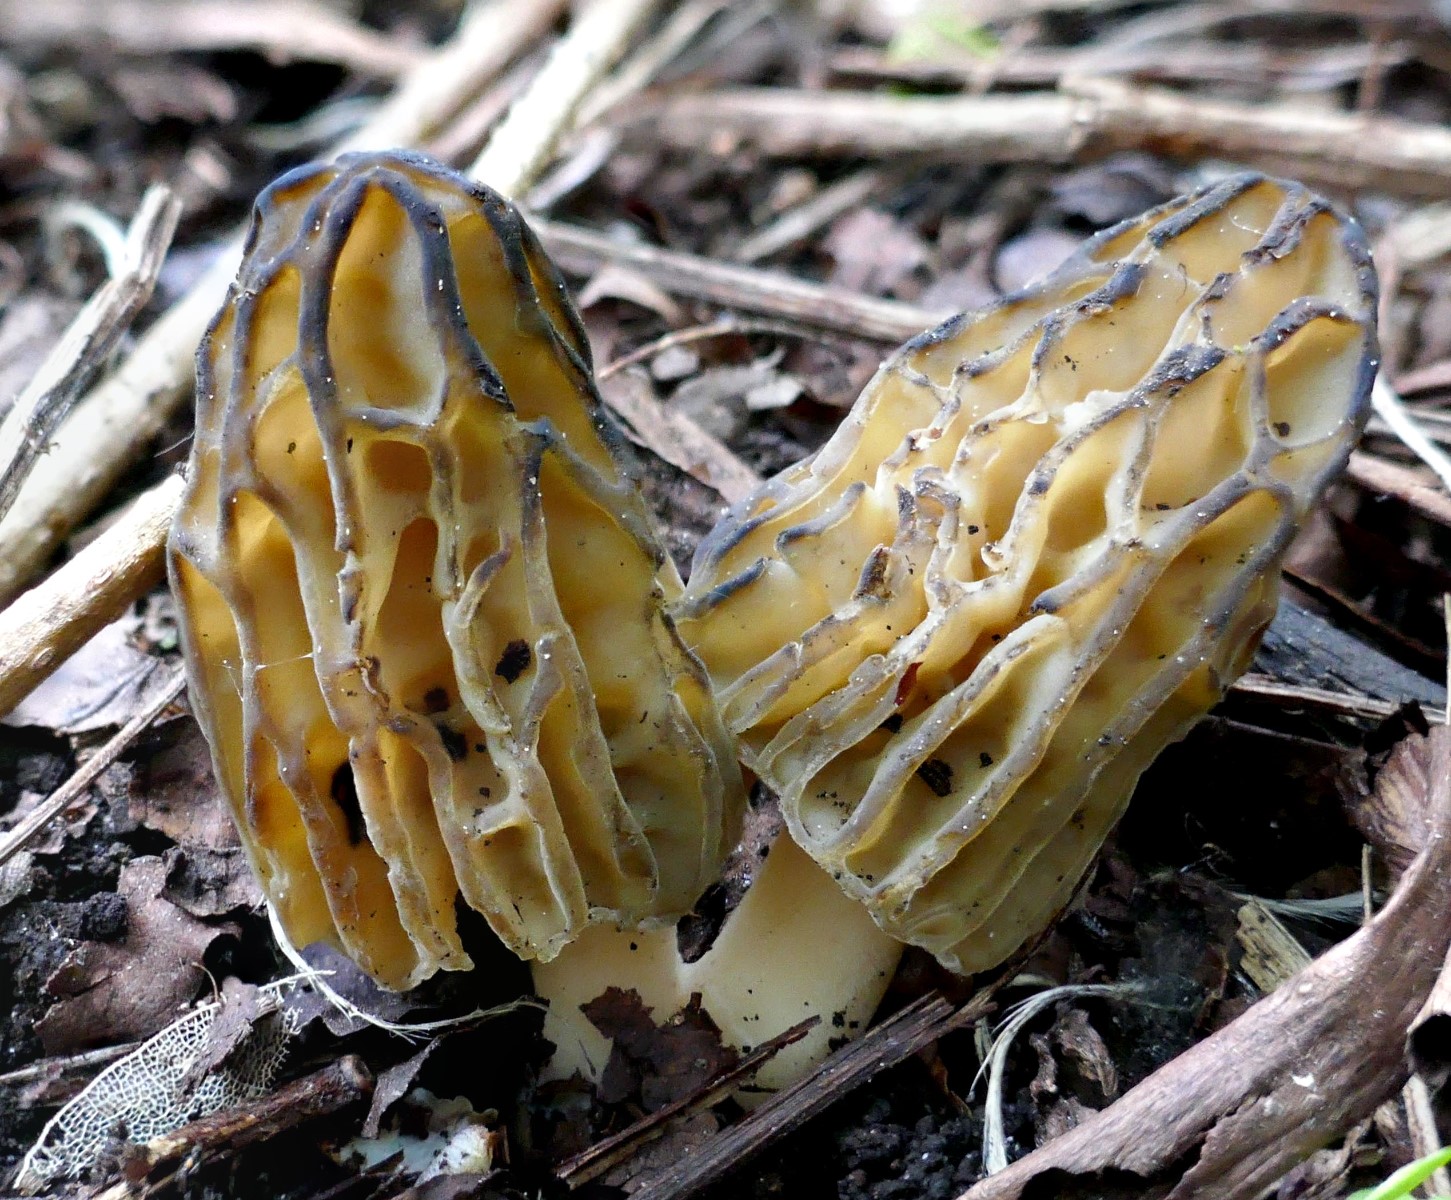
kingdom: Fungi
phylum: Ascomycota
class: Pezizomycetes
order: Pezizales
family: Morchellaceae
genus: Morchella
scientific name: Morchella semilibera
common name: hætte-morkel
